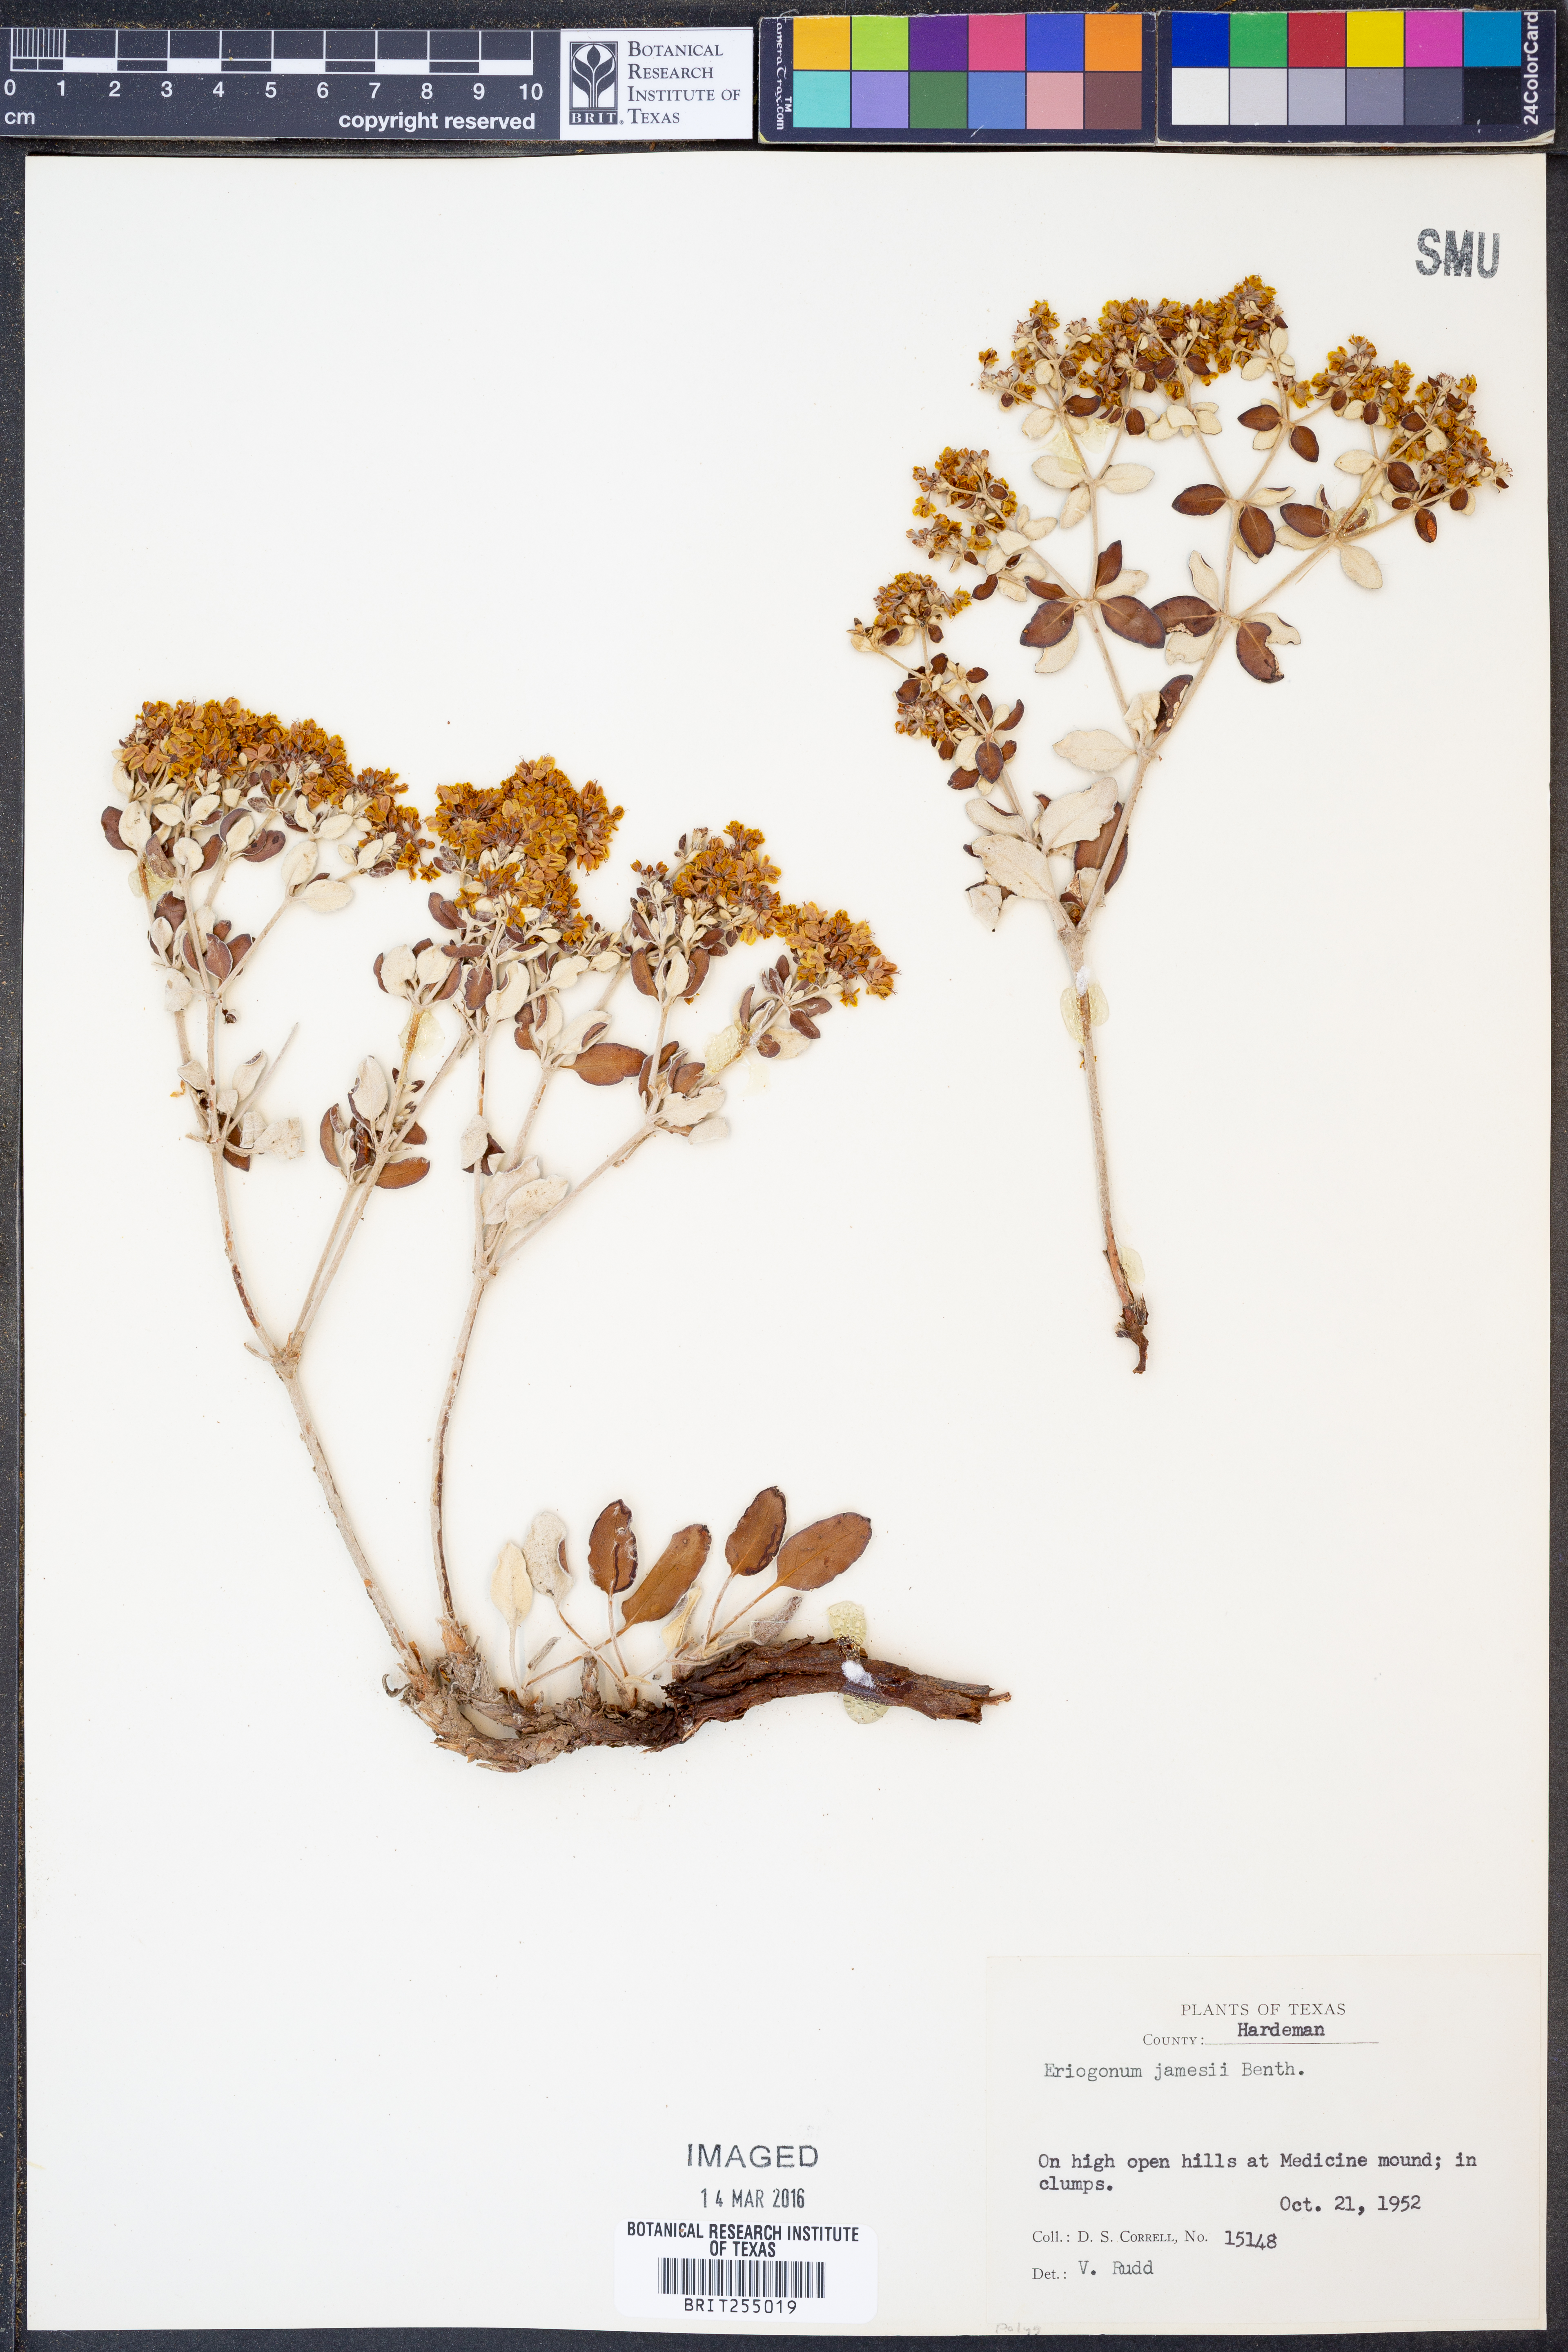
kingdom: Plantae
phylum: Tracheophyta
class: Magnoliopsida
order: Caryophyllales
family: Polygonaceae
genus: Eriogonum
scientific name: Eriogonum jamesii
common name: Antelope-sage
